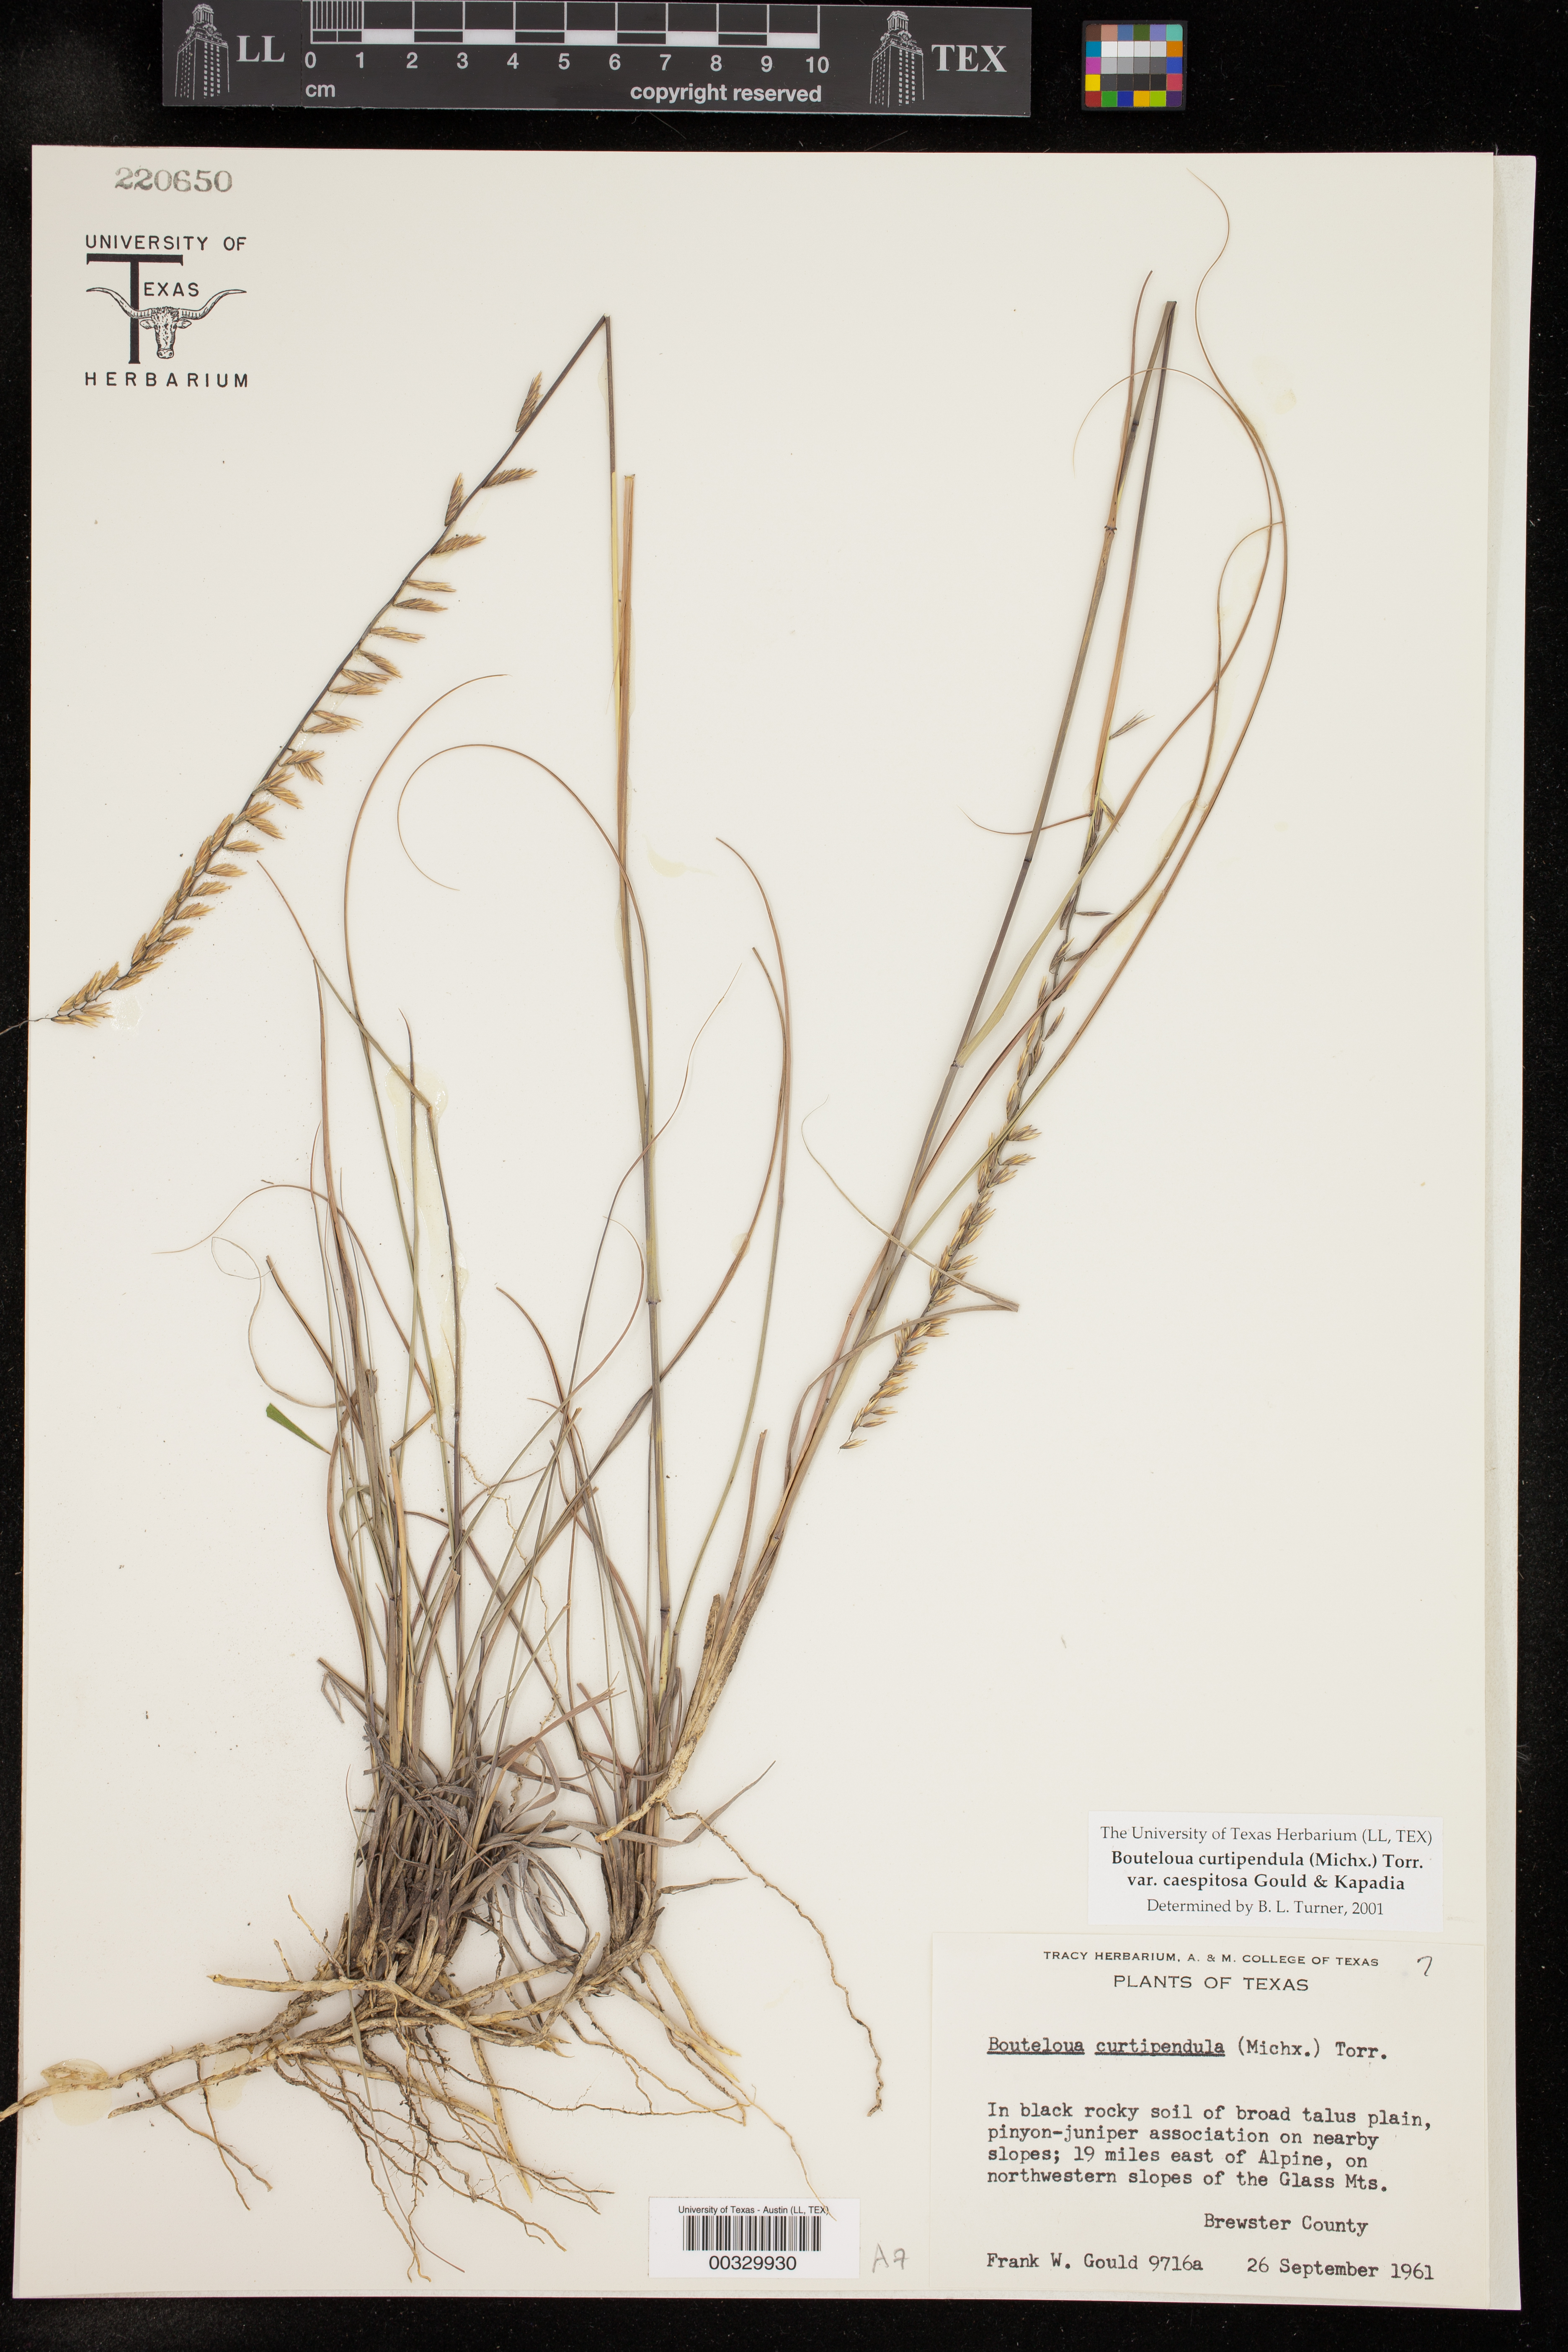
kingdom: Plantae
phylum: Tracheophyta
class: Liliopsida
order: Poales
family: Poaceae
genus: Bouteloua
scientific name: Bouteloua curtipendula
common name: Side-oats grama
